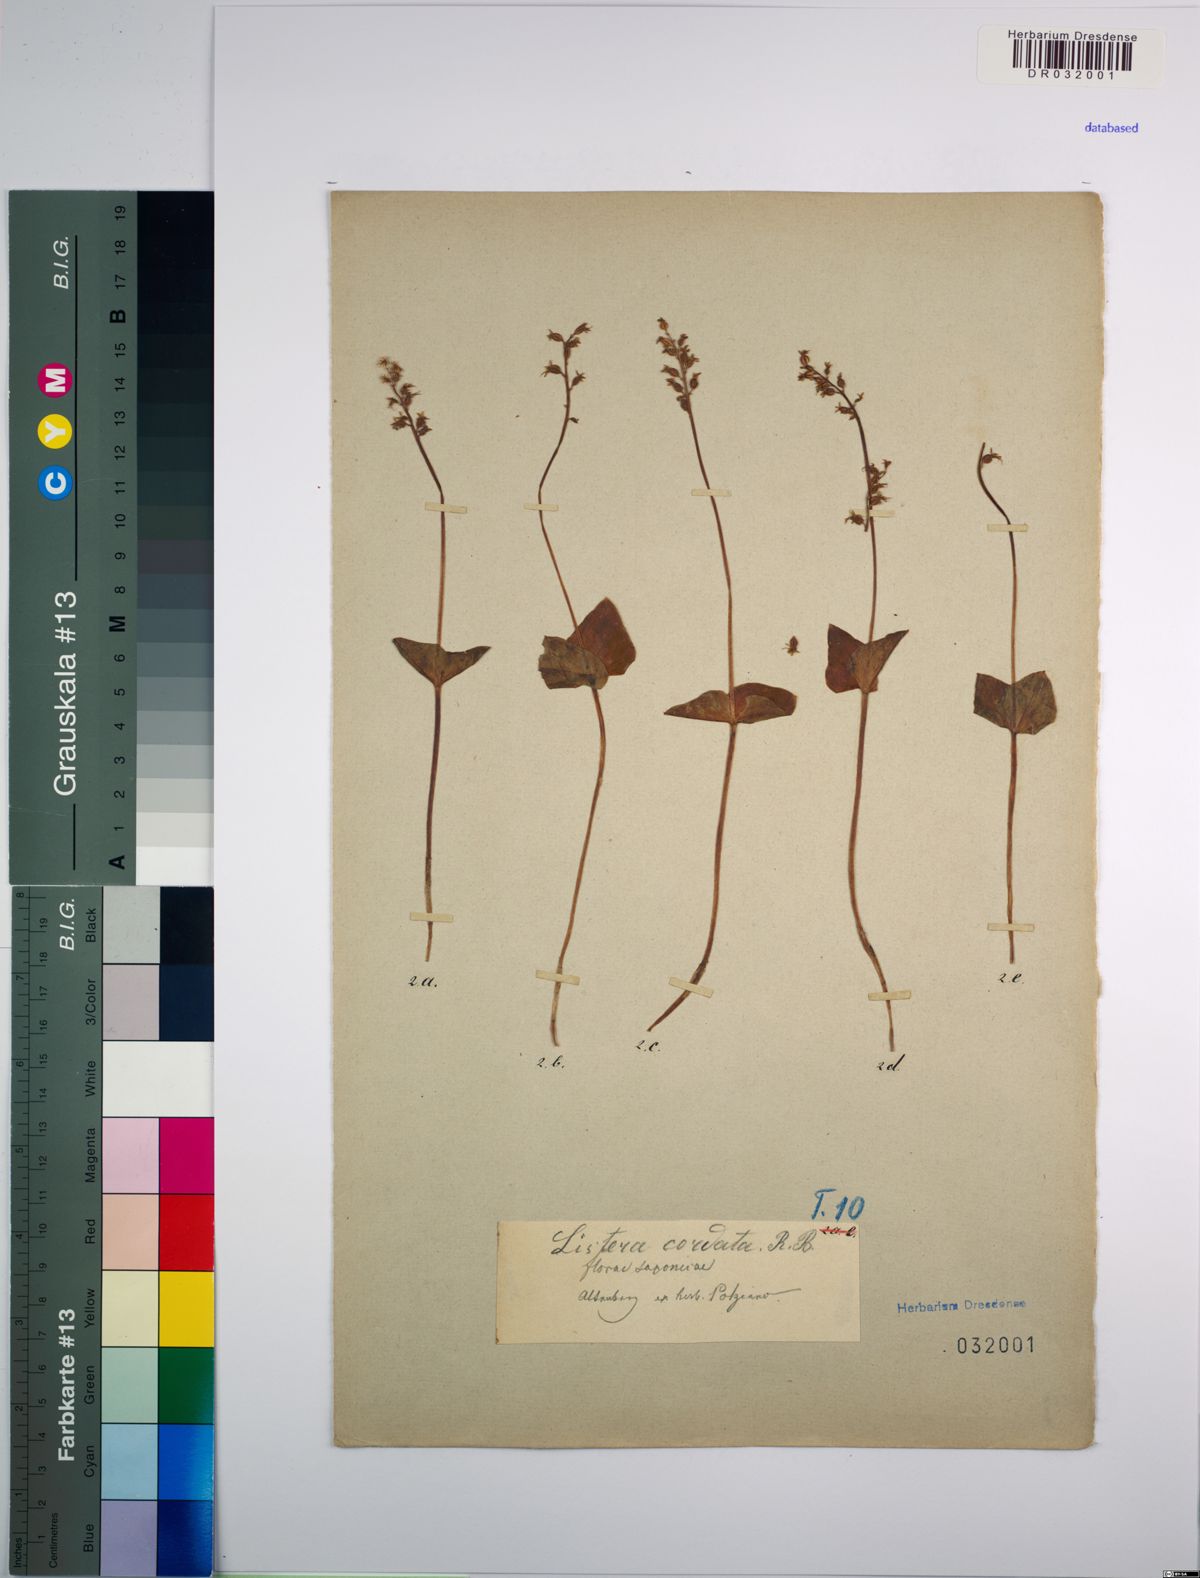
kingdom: Plantae
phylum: Tracheophyta
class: Liliopsida
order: Asparagales
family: Orchidaceae
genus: Neottia
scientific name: Neottia cordata
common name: Lesser twayblade
